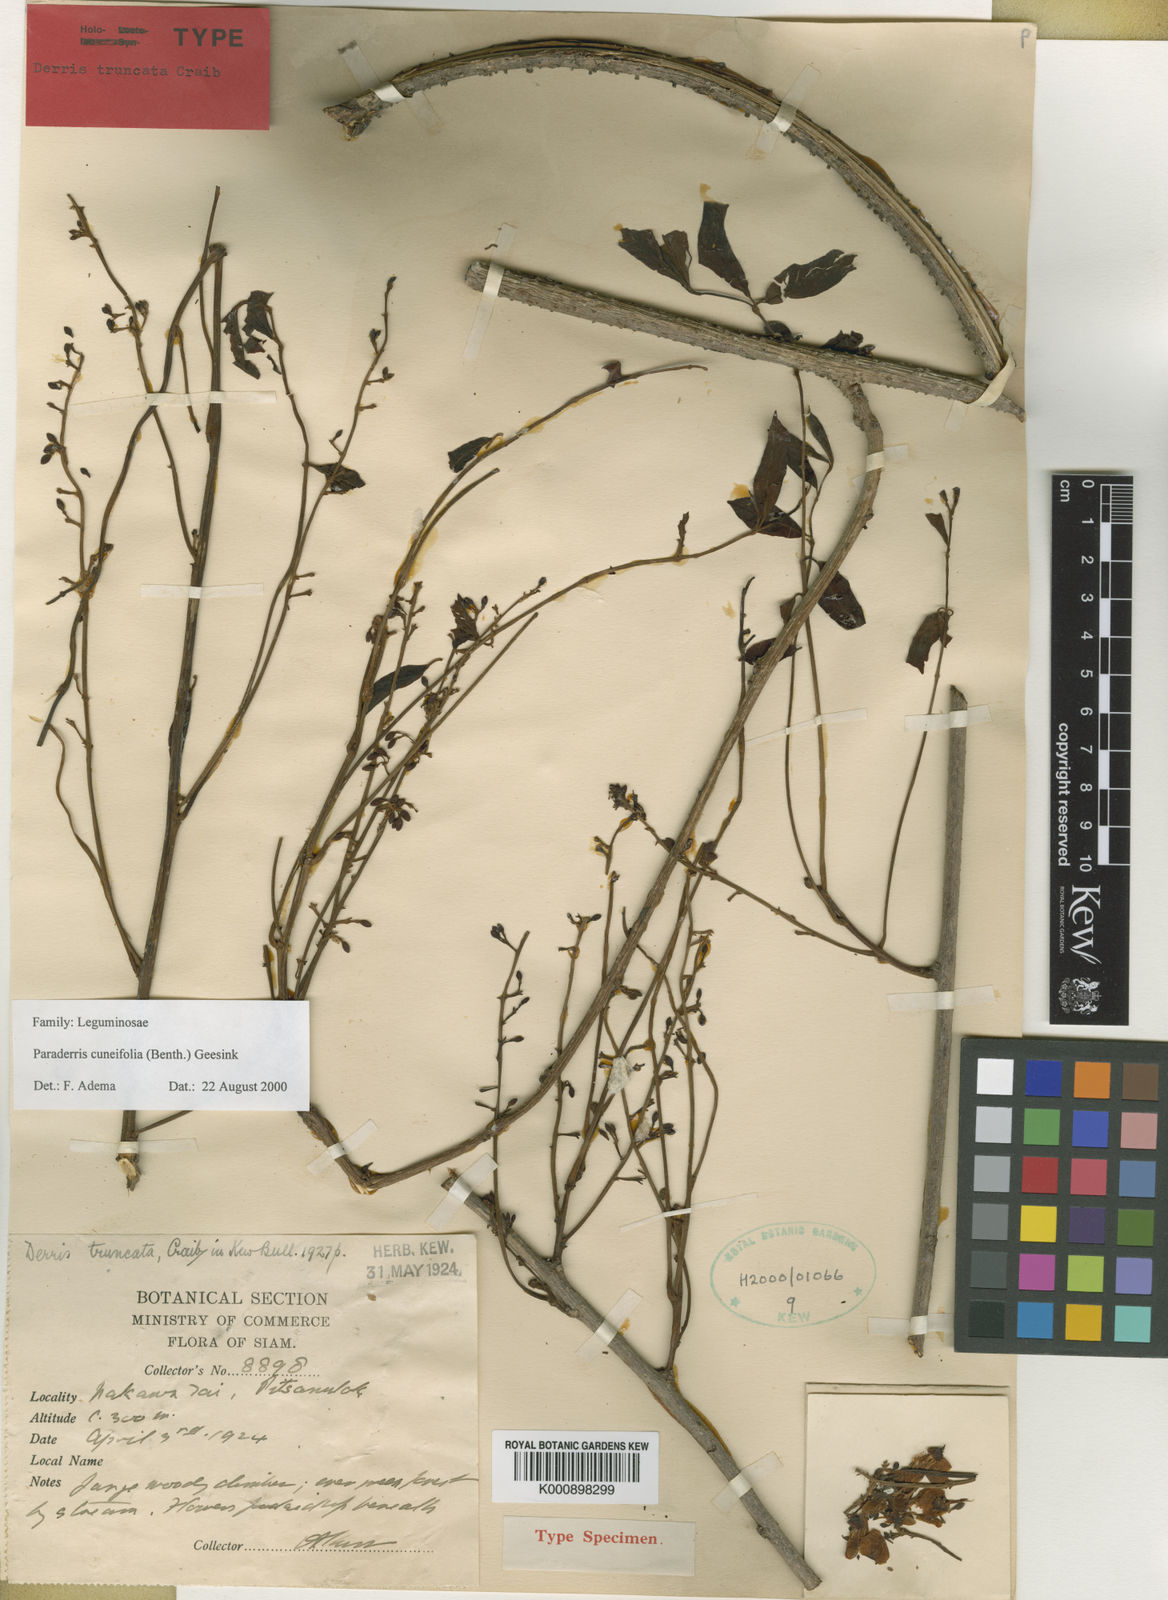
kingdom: Plantae
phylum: Tracheophyta
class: Magnoliopsida
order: Fabales
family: Fabaceae
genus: Derris
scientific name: Derris cuneifolia
